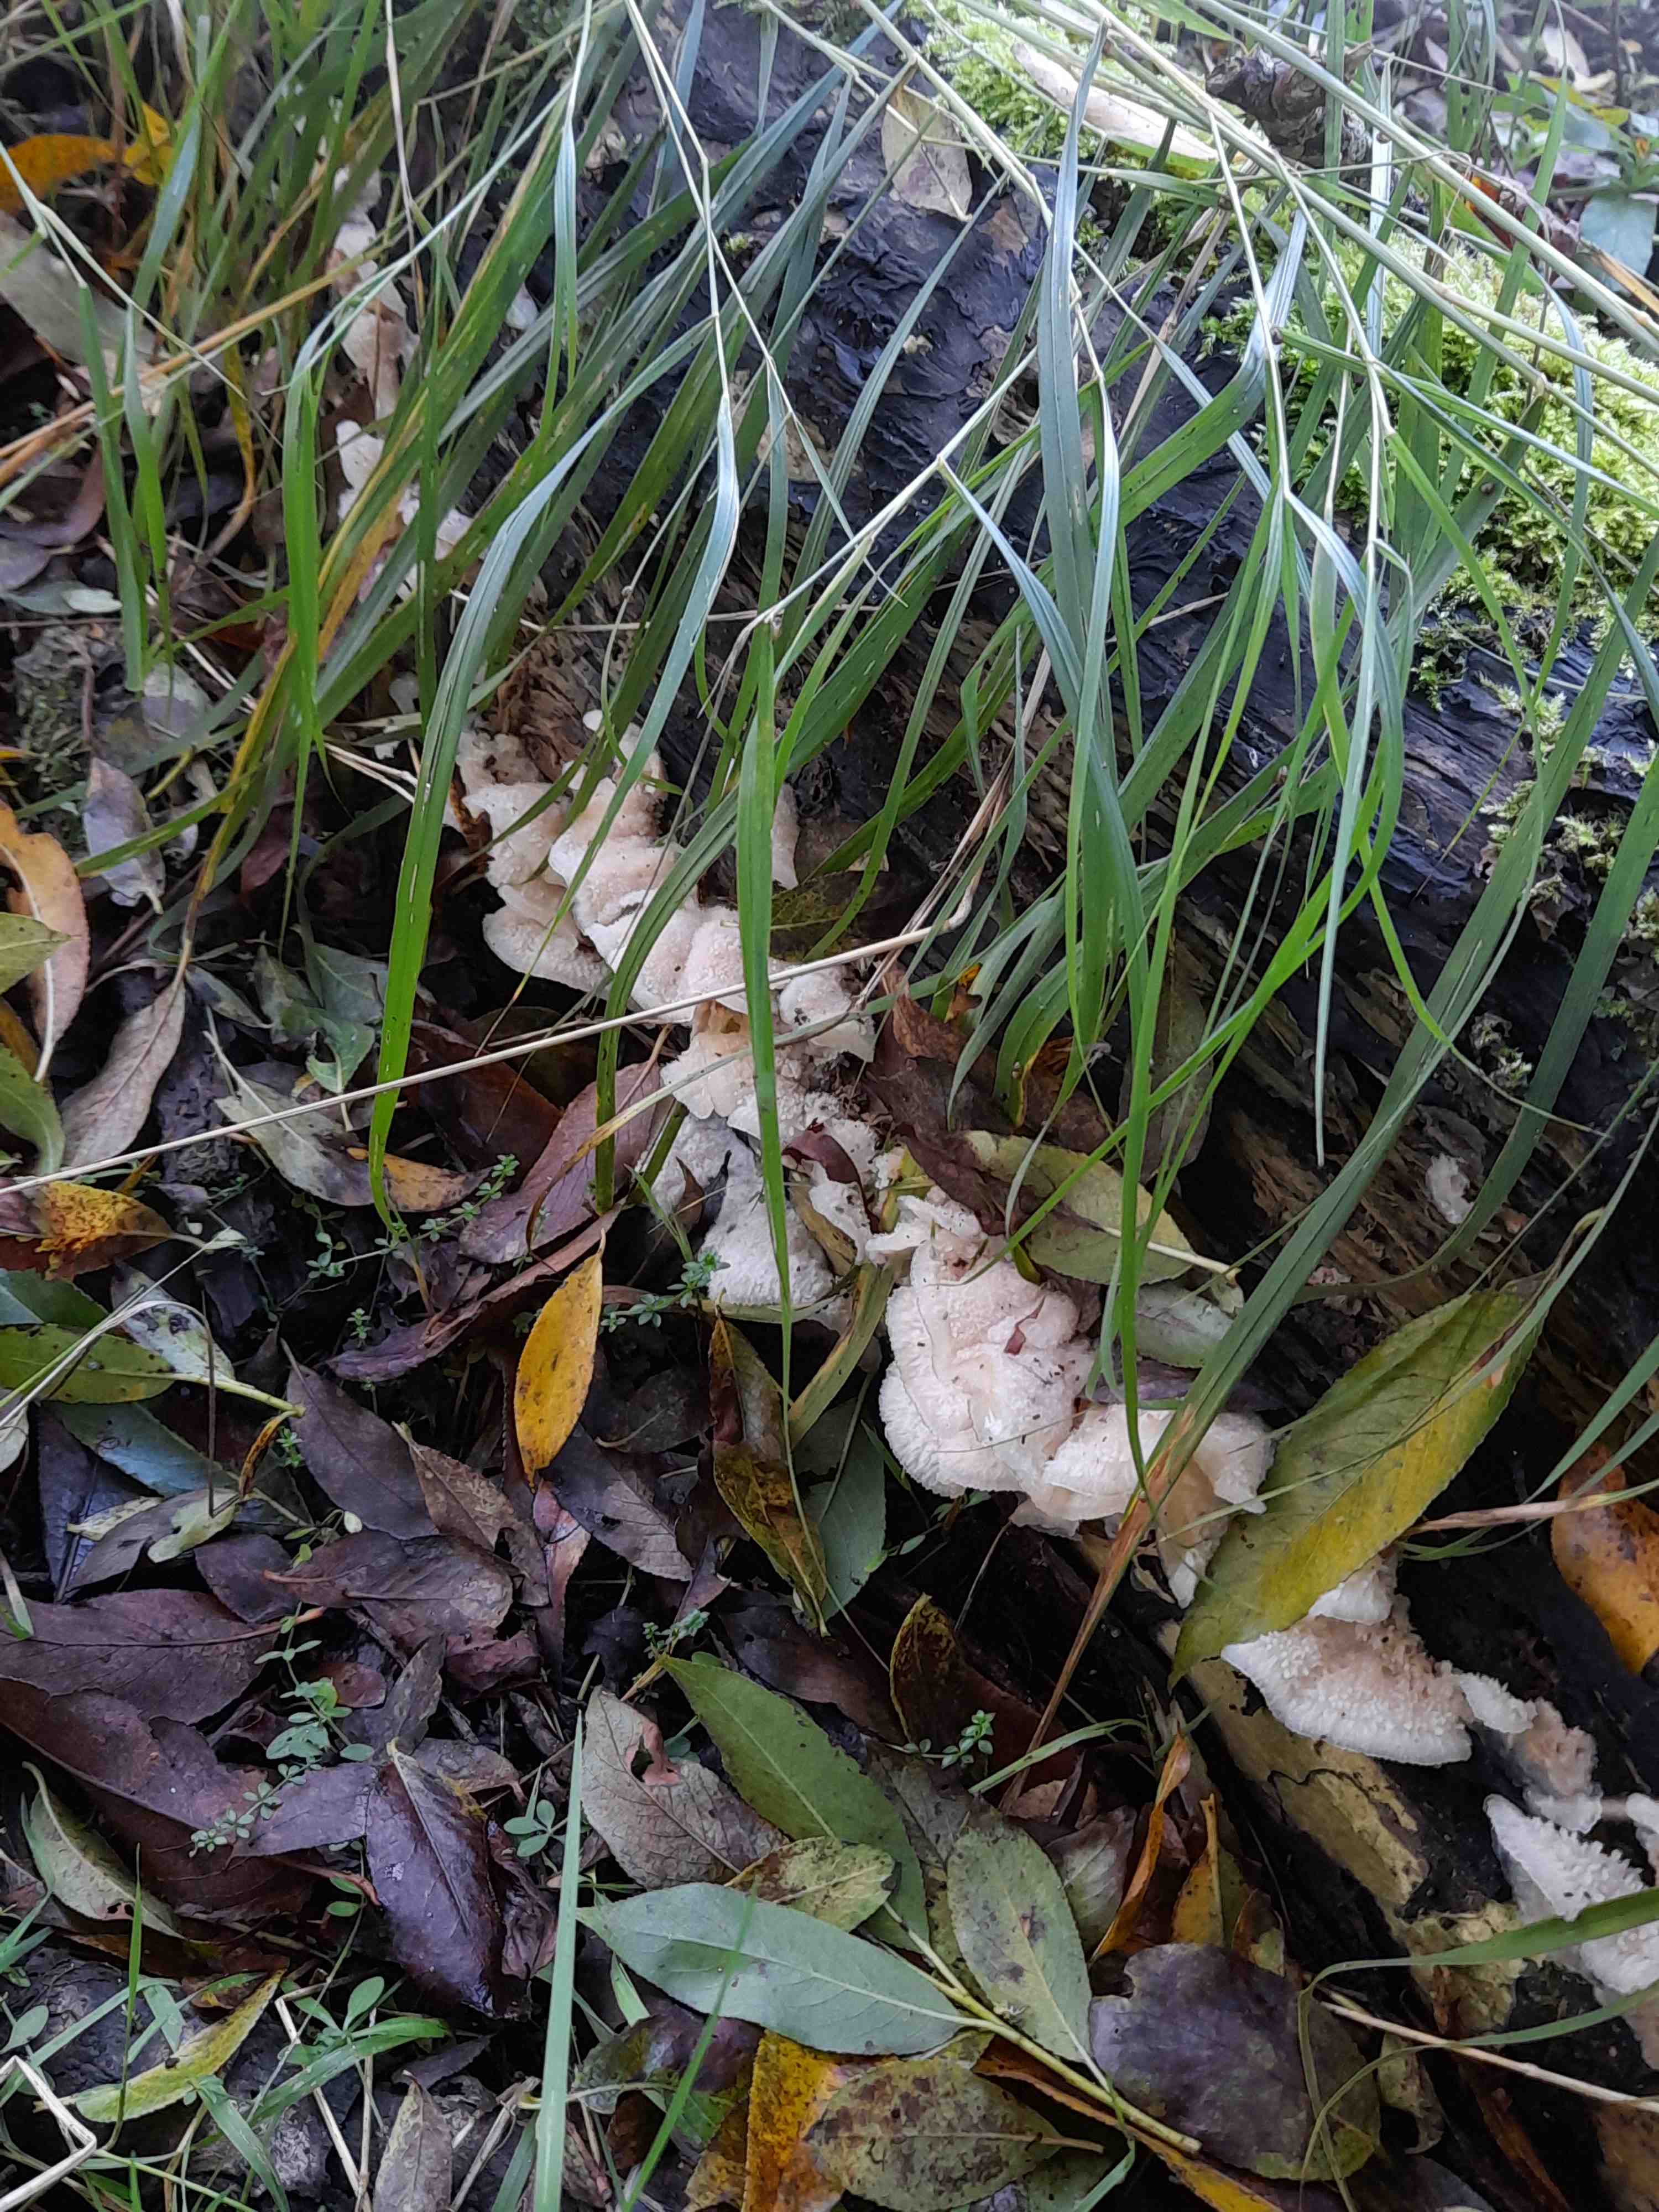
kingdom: Fungi
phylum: Basidiomycota
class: Agaricomycetes
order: Polyporales
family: Meruliaceae
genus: Phlebia
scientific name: Phlebia tremellosa
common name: bævrende åresvamp
